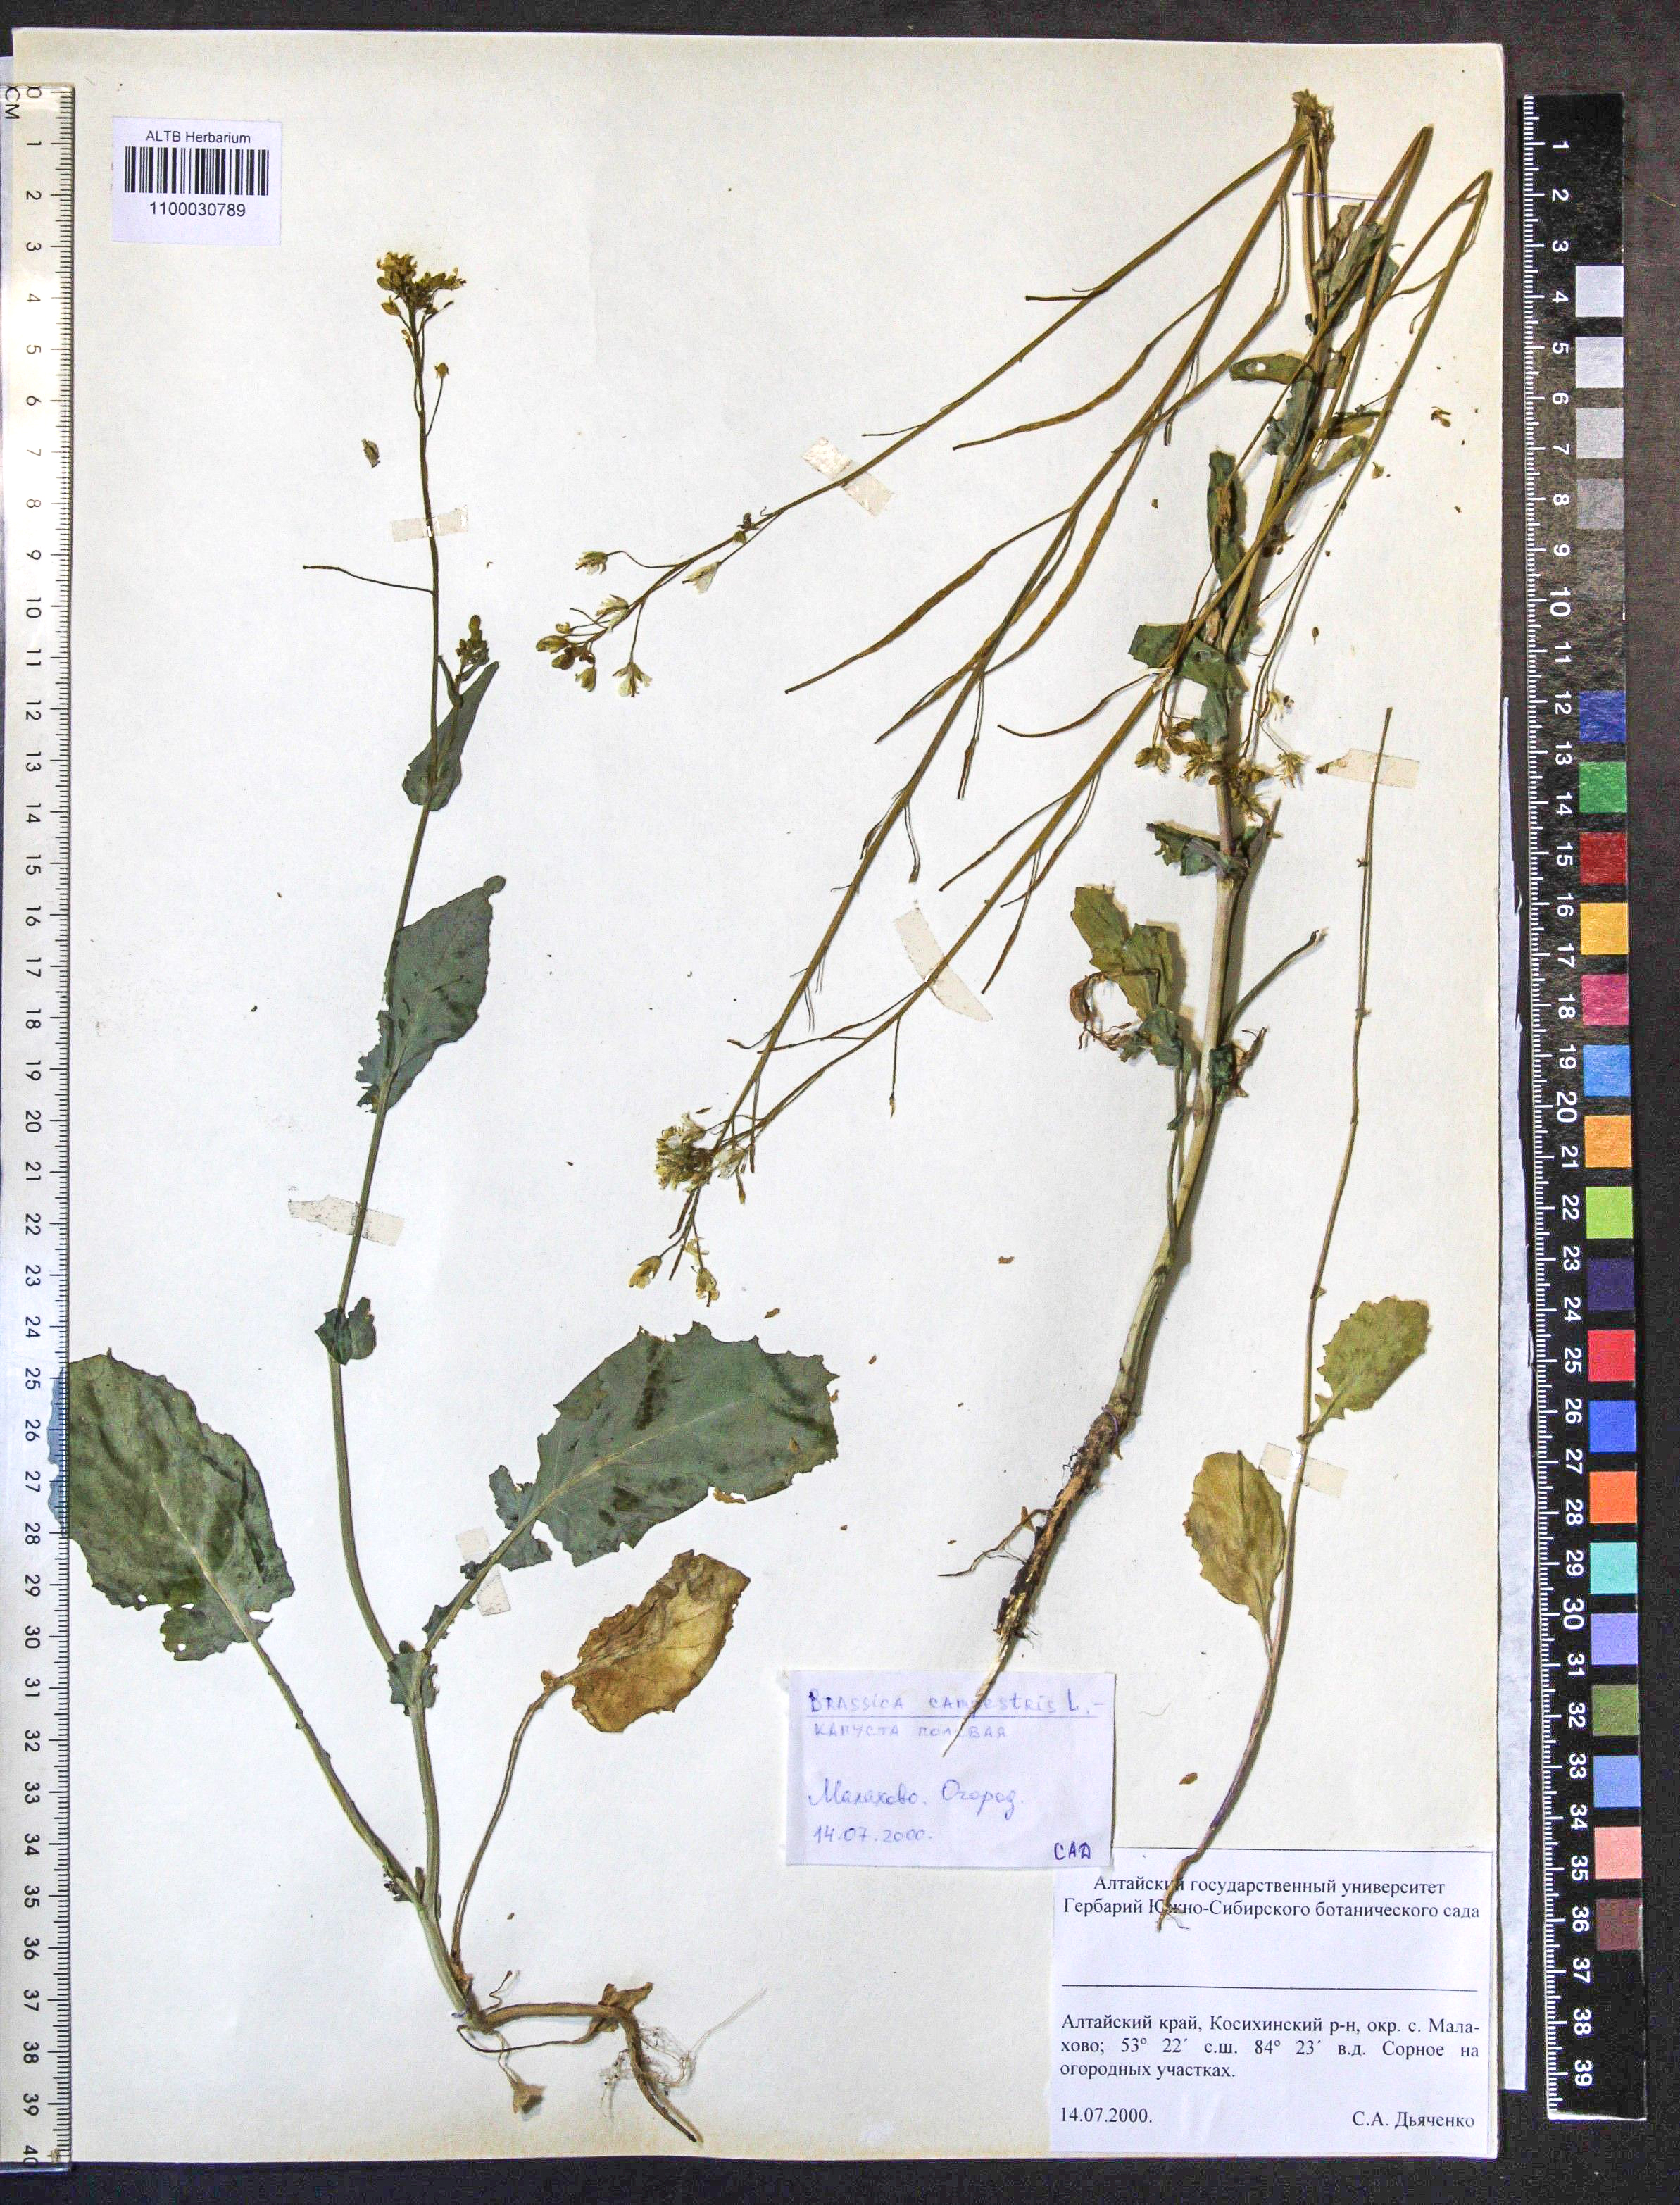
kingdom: Plantae
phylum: Tracheophyta
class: Magnoliopsida
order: Brassicales
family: Brassicaceae
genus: Brassica
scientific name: Brassica rapa
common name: Field mustard
